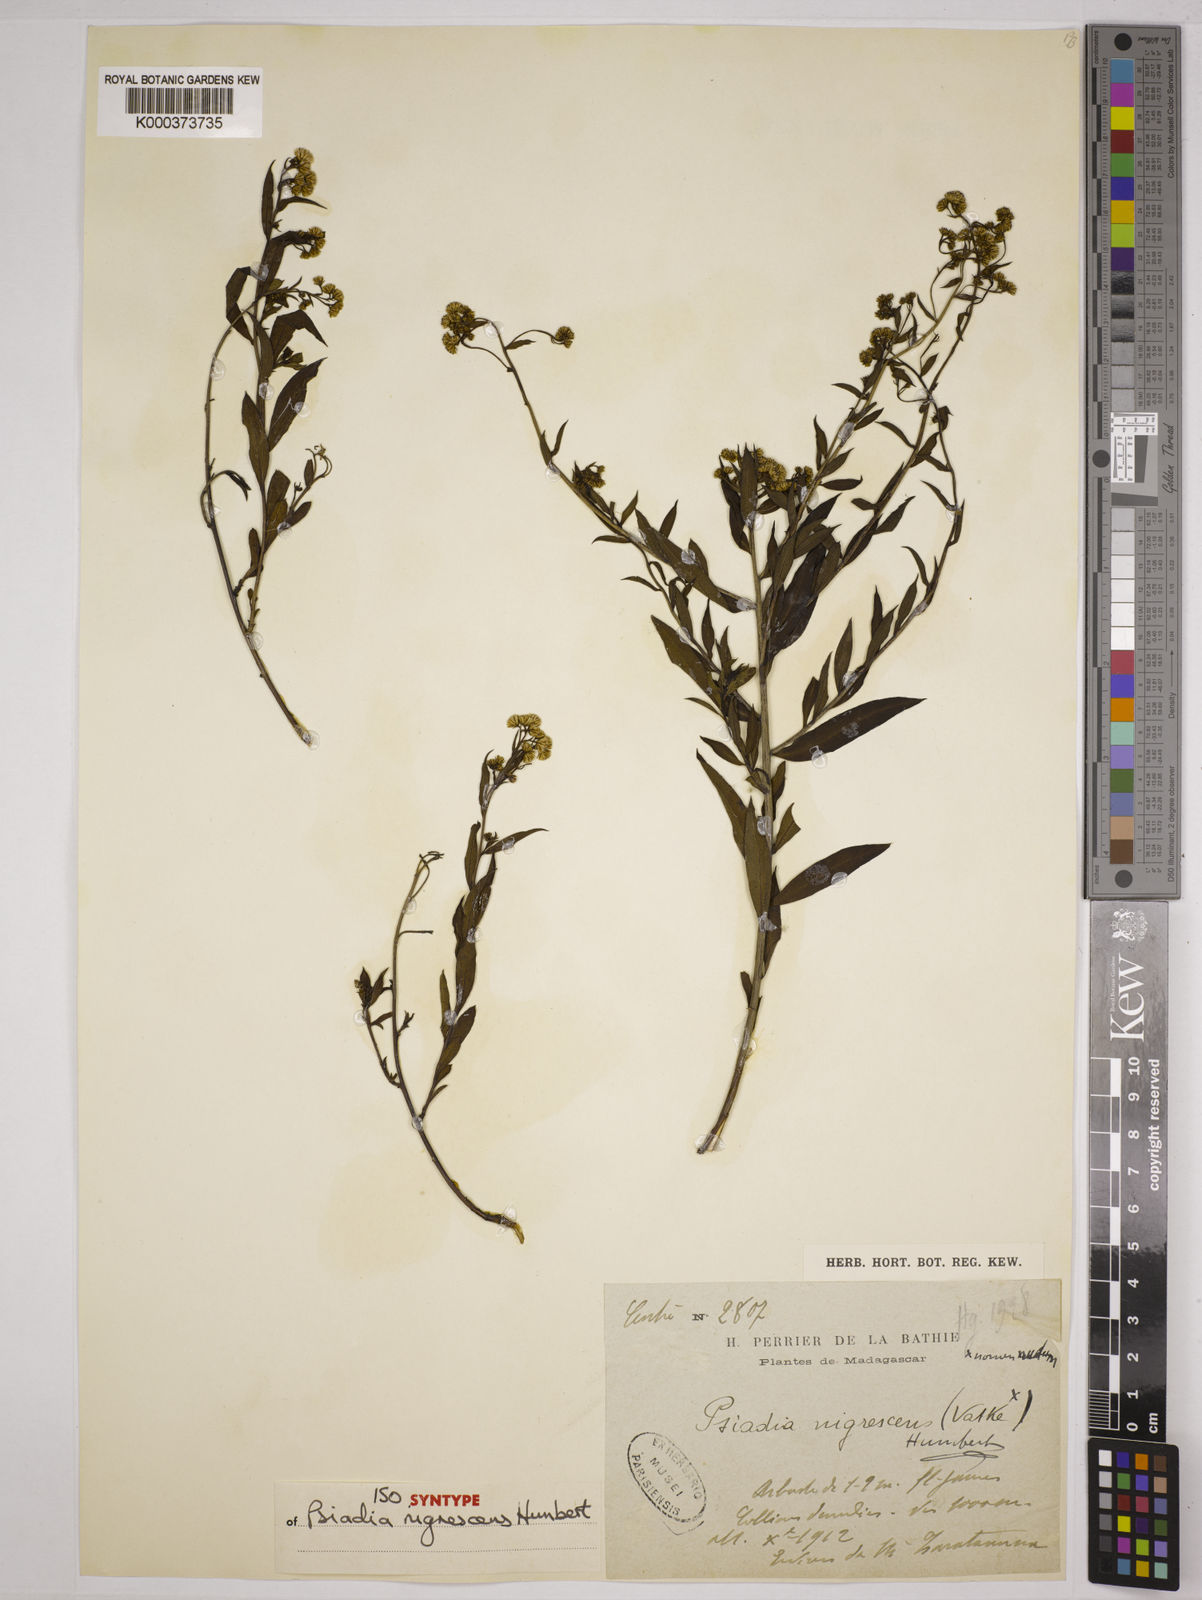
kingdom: Plantae
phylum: Tracheophyta
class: Magnoliopsida
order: Asterales
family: Asteraceae
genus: Psiadia
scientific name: Psiadia nigrescens
